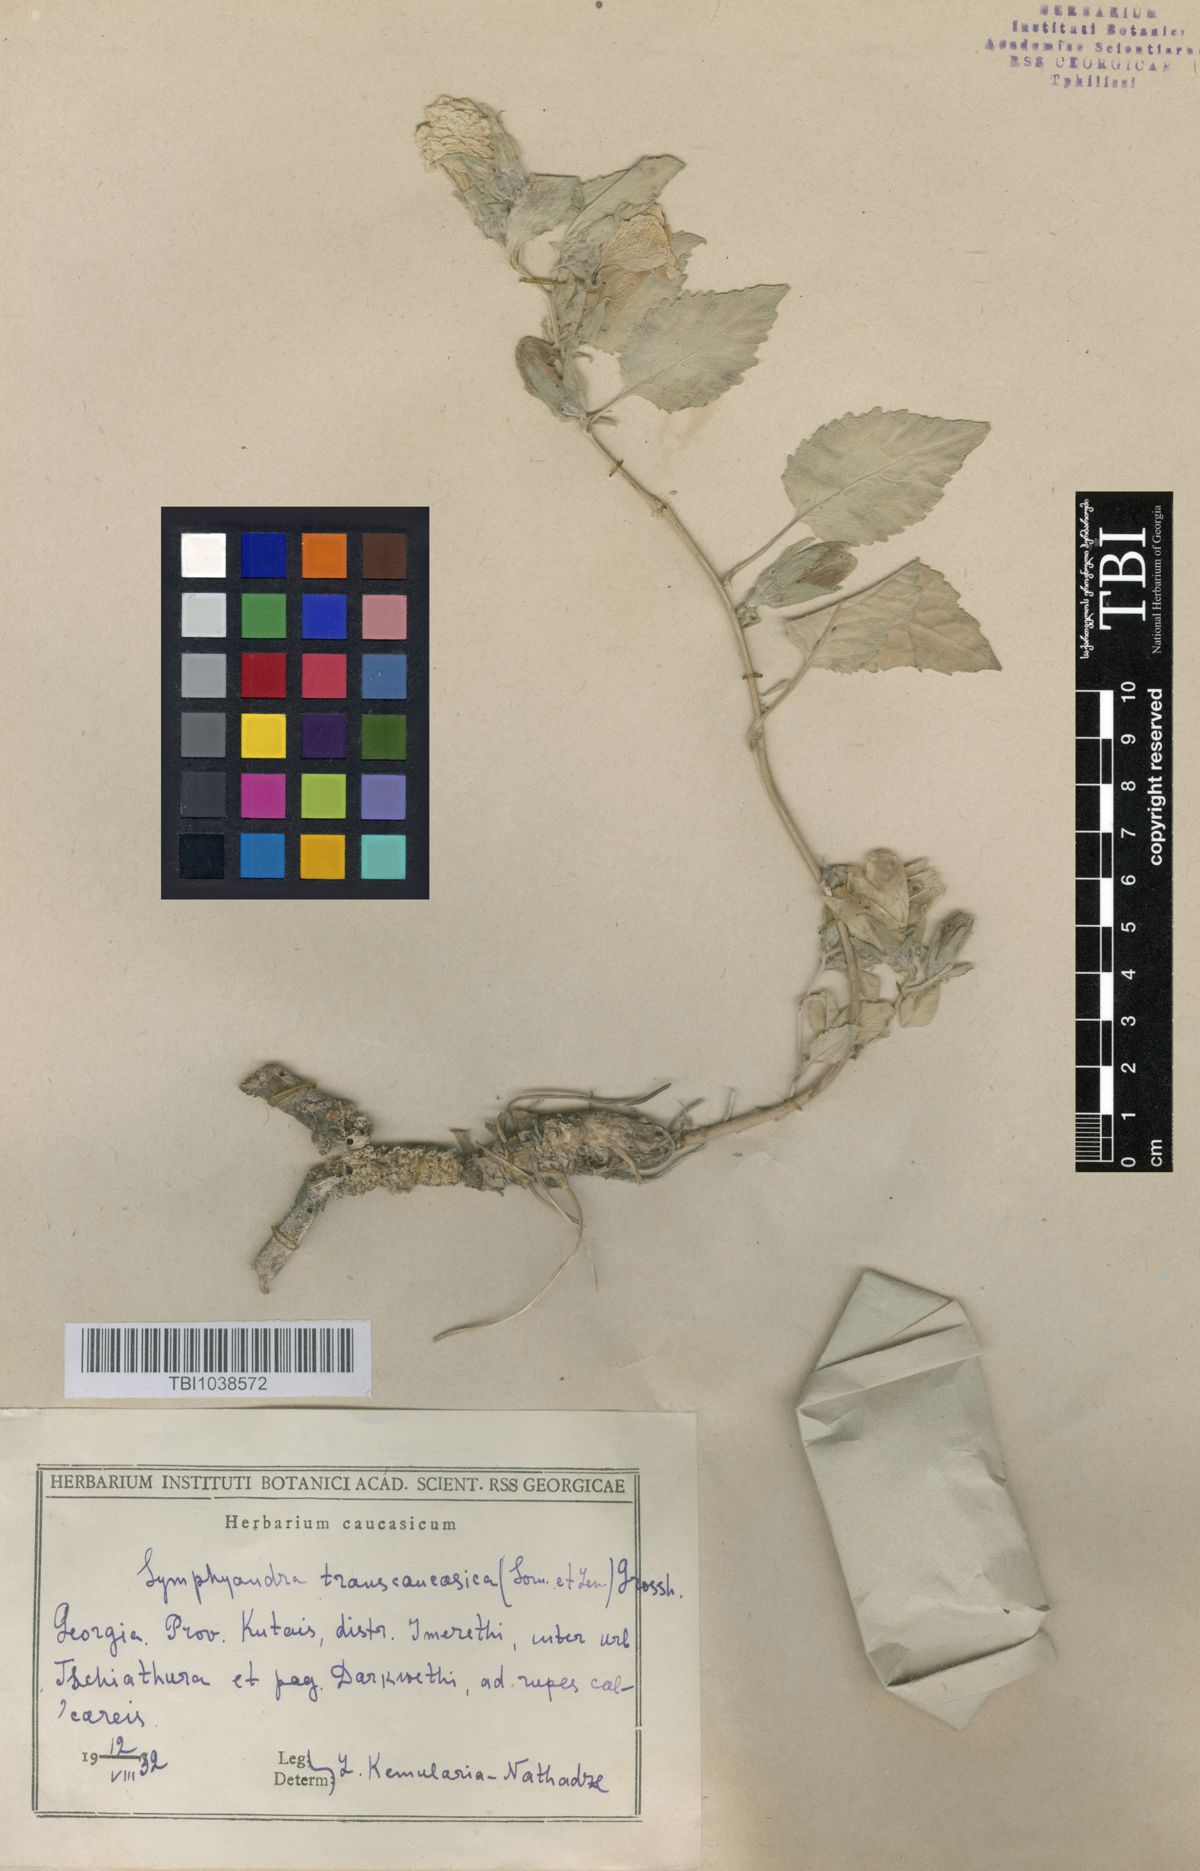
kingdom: Plantae
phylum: Tracheophyta
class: Magnoliopsida
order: Asterales
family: Campanulaceae
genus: Campanula
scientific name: Campanula pendula
